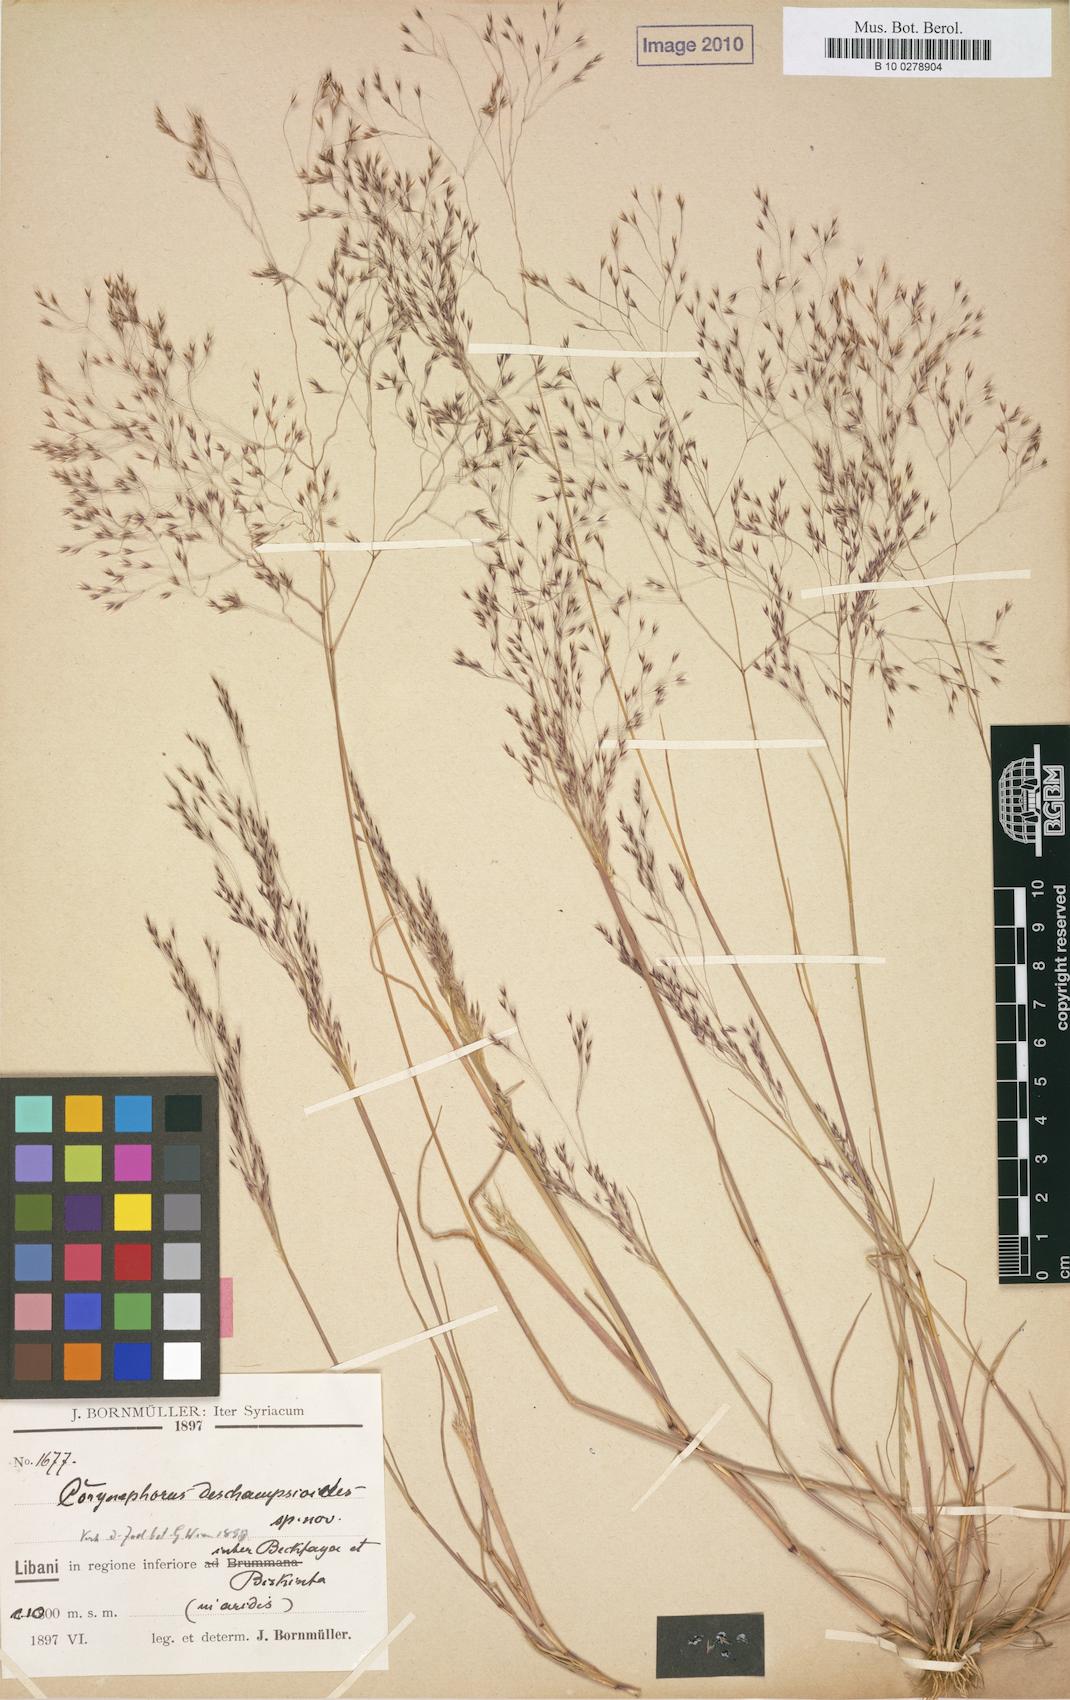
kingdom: Plantae
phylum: Tracheophyta
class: Liliopsida
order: Poales
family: Poaceae
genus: Corynephorus
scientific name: Corynephorus deschampsioides
